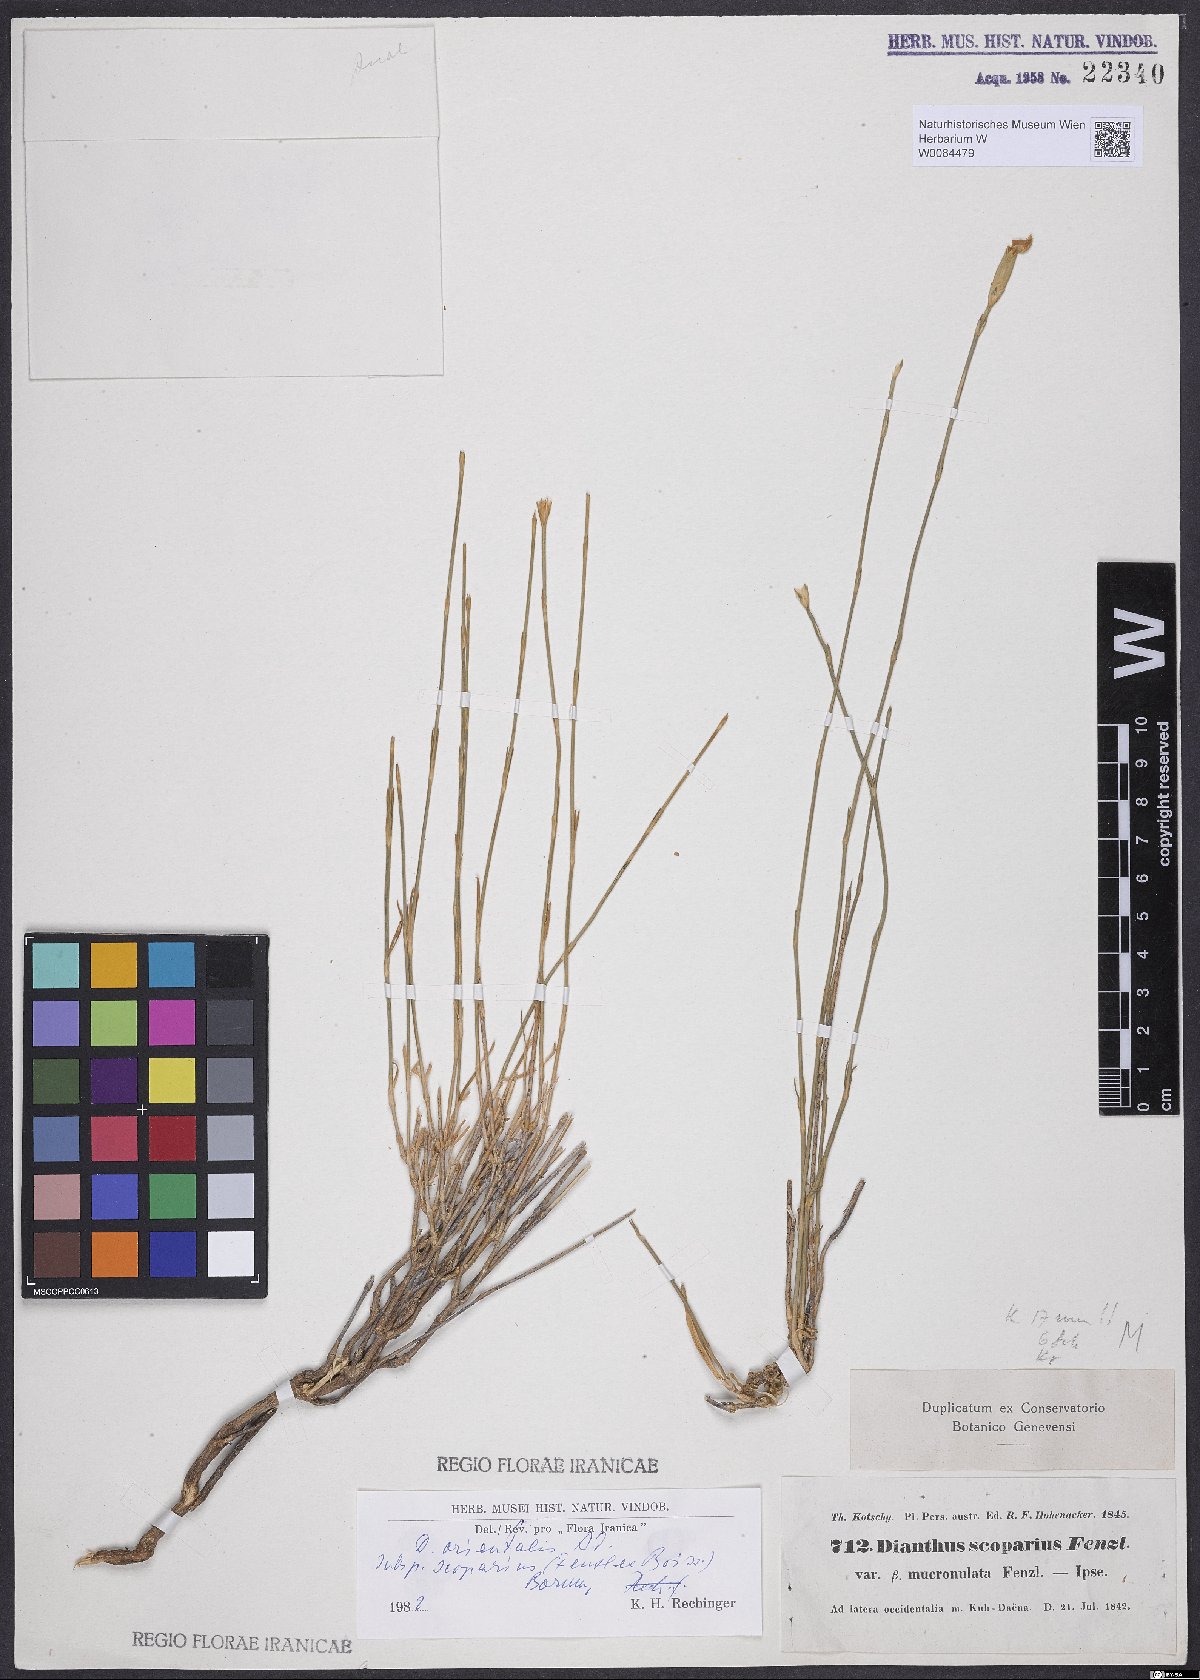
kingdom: Plantae
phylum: Tracheophyta
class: Magnoliopsida
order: Caryophyllales
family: Caryophyllaceae
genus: Dianthus
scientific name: Dianthus orientalis
